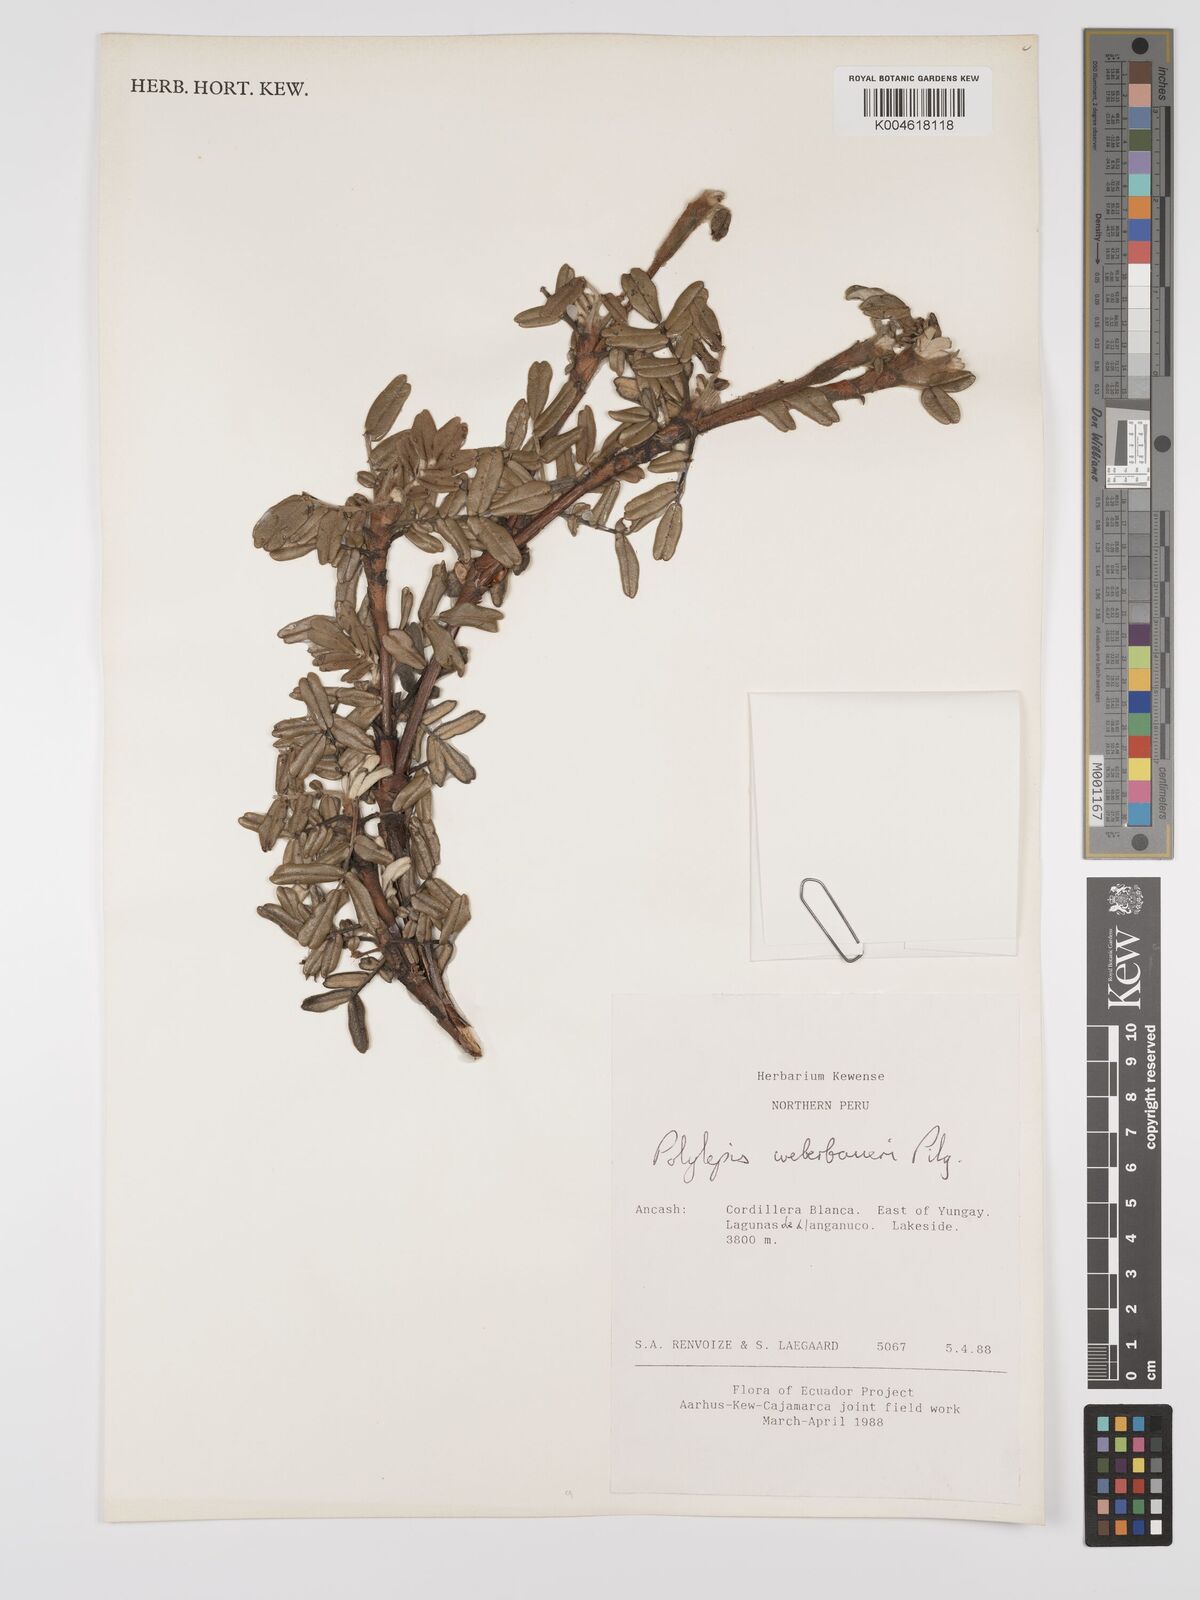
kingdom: Plantae
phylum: Tracheophyta
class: Magnoliopsida
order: Rosales
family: Rosaceae
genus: Polylepis
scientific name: Polylepis weberbaueri
